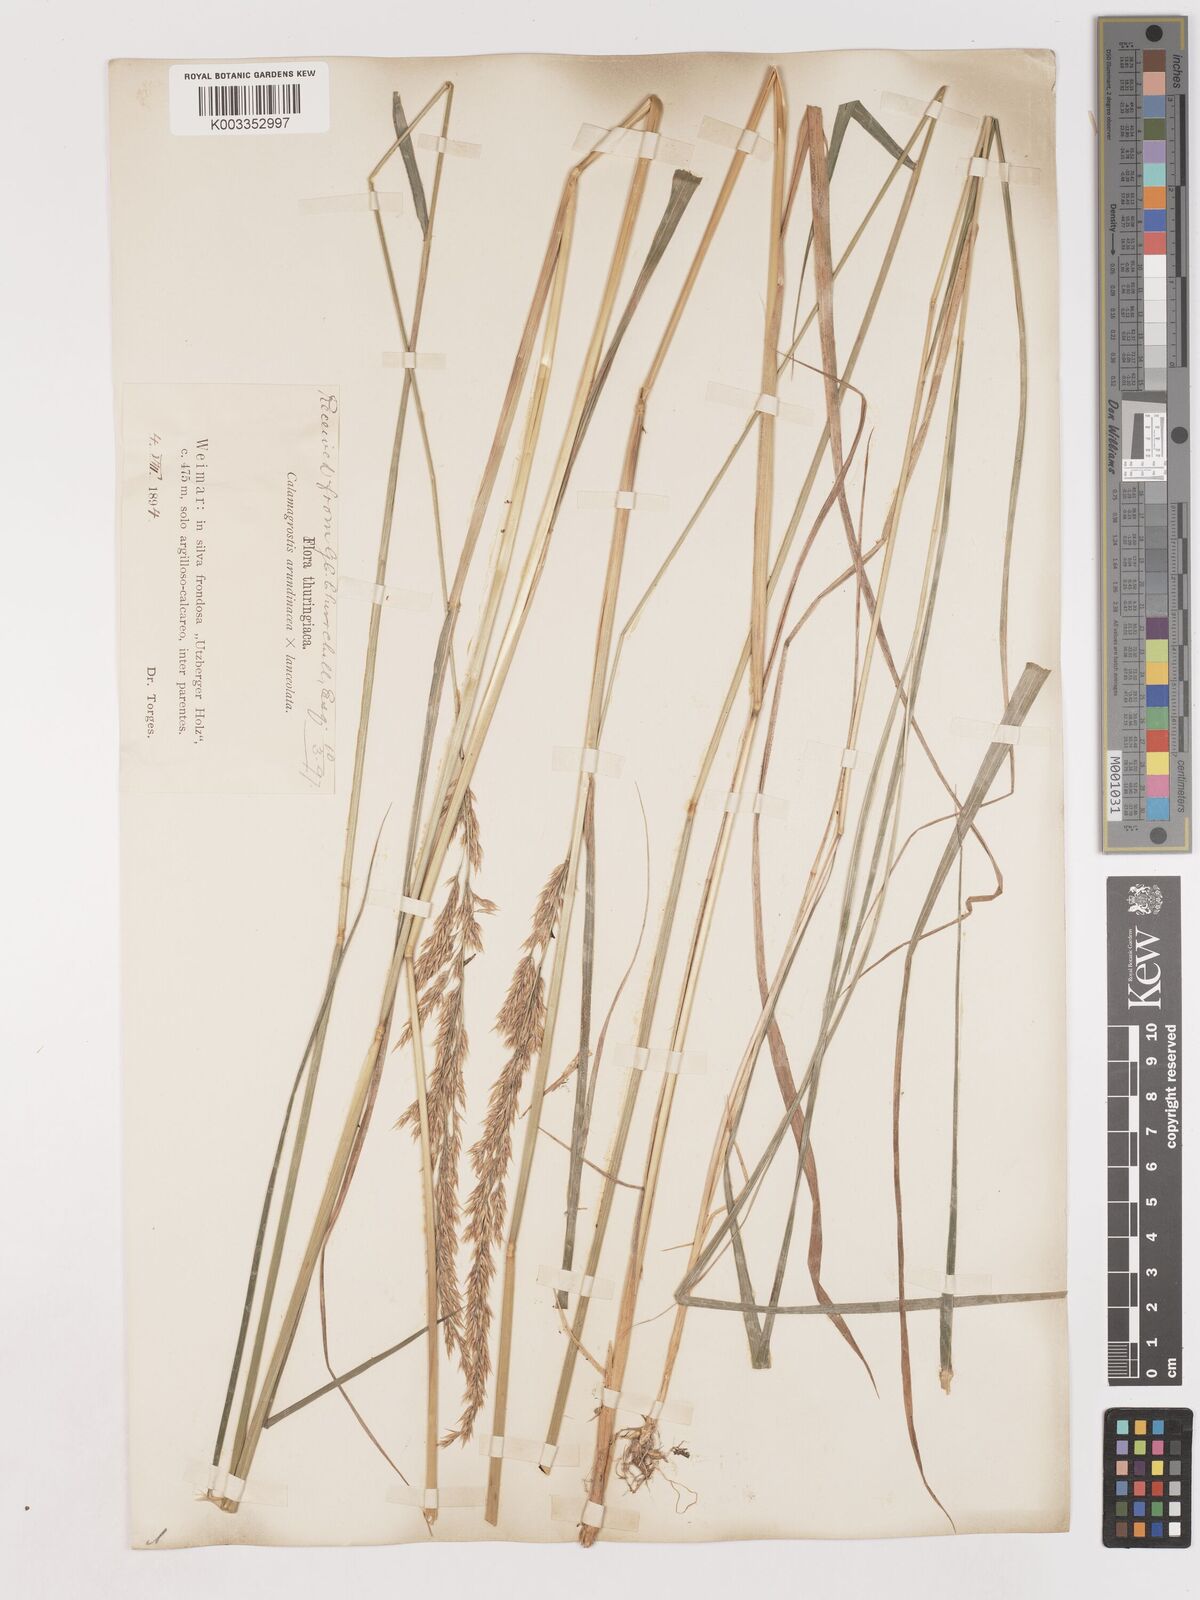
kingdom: Plantae
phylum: Tracheophyta
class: Liliopsida
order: Poales
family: Poaceae
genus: Calamagrostis
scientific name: Calamagrostis canescens
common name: Purple small-reed
